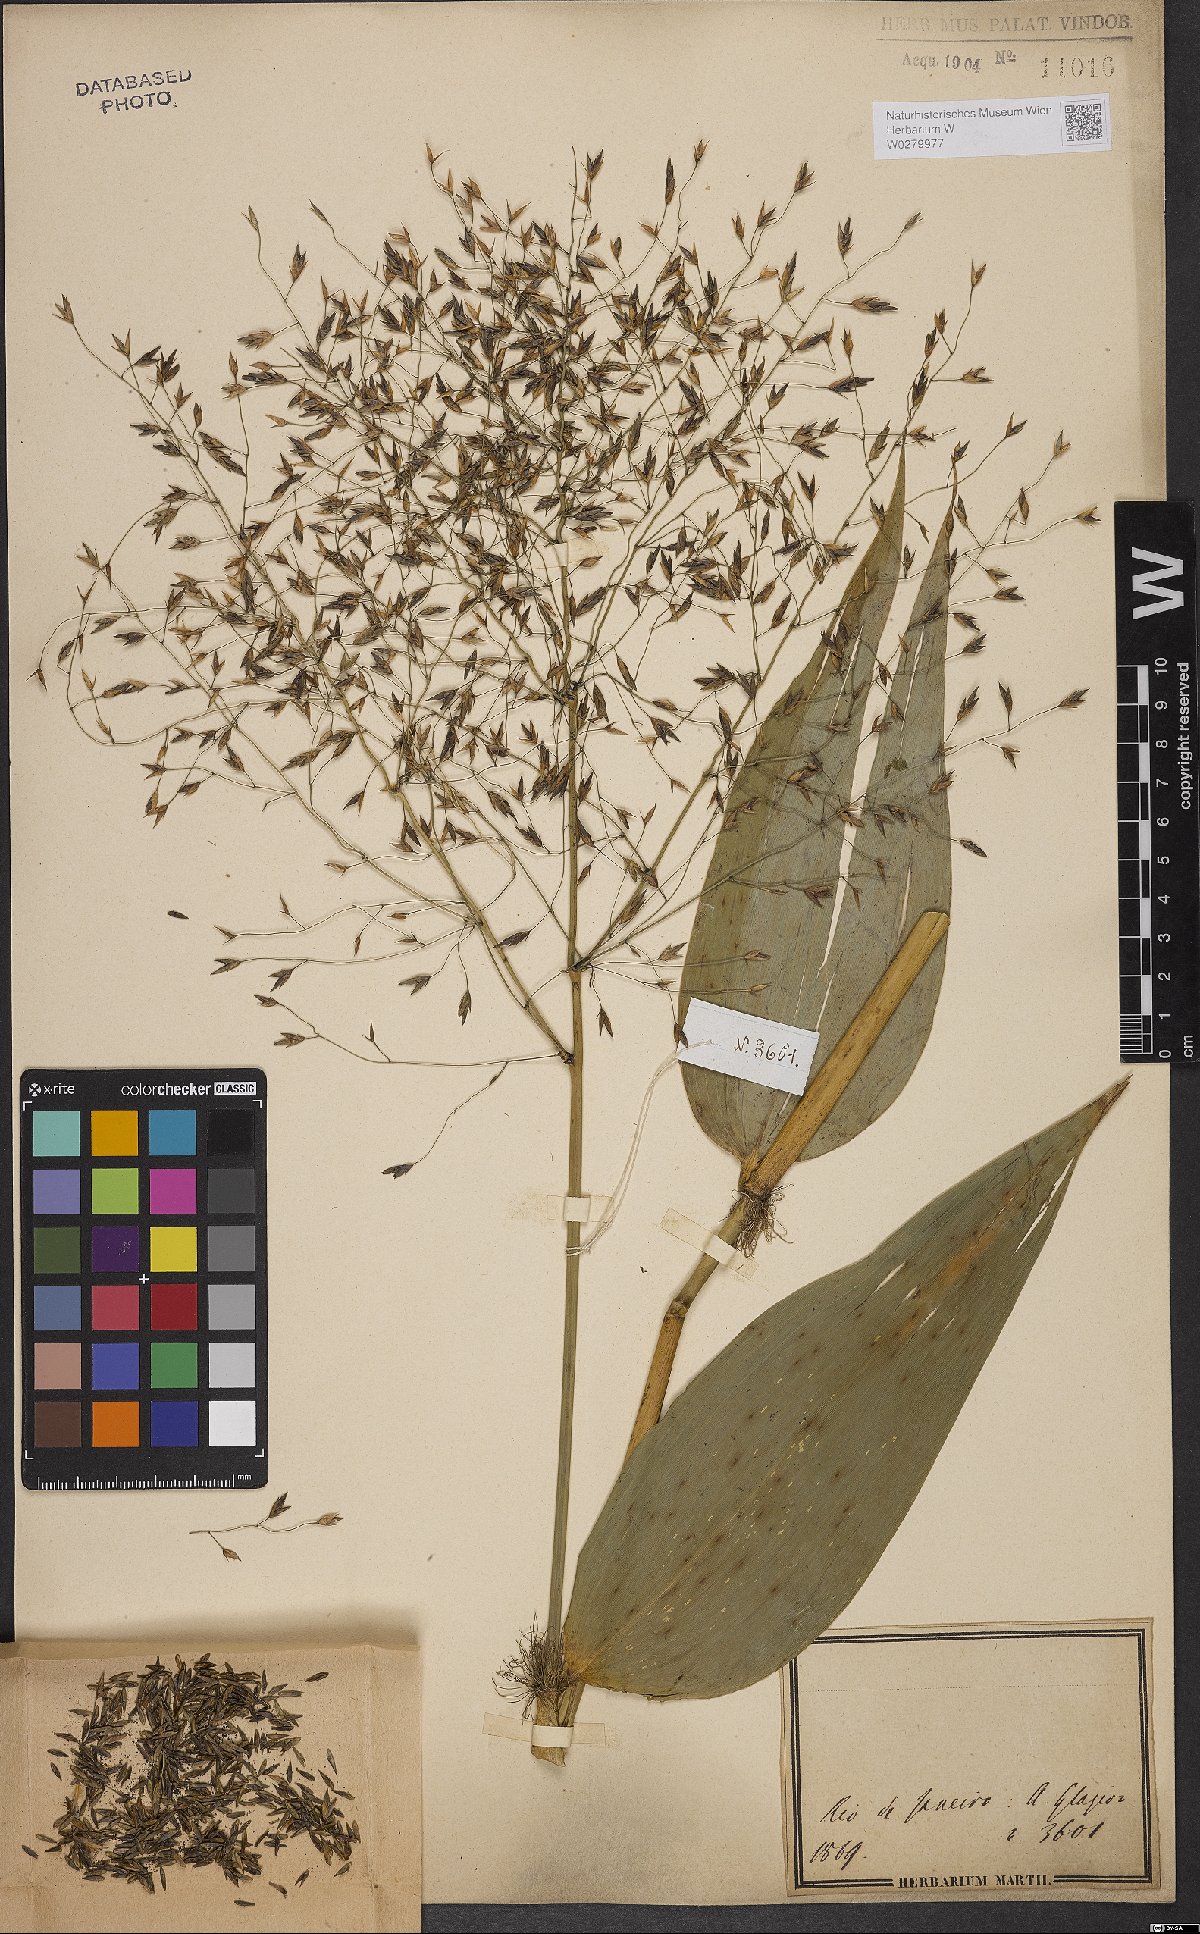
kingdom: Plantae
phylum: Tracheophyta
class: Liliopsida
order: Poales
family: Poaceae
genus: Bambusa
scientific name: Bambusa
